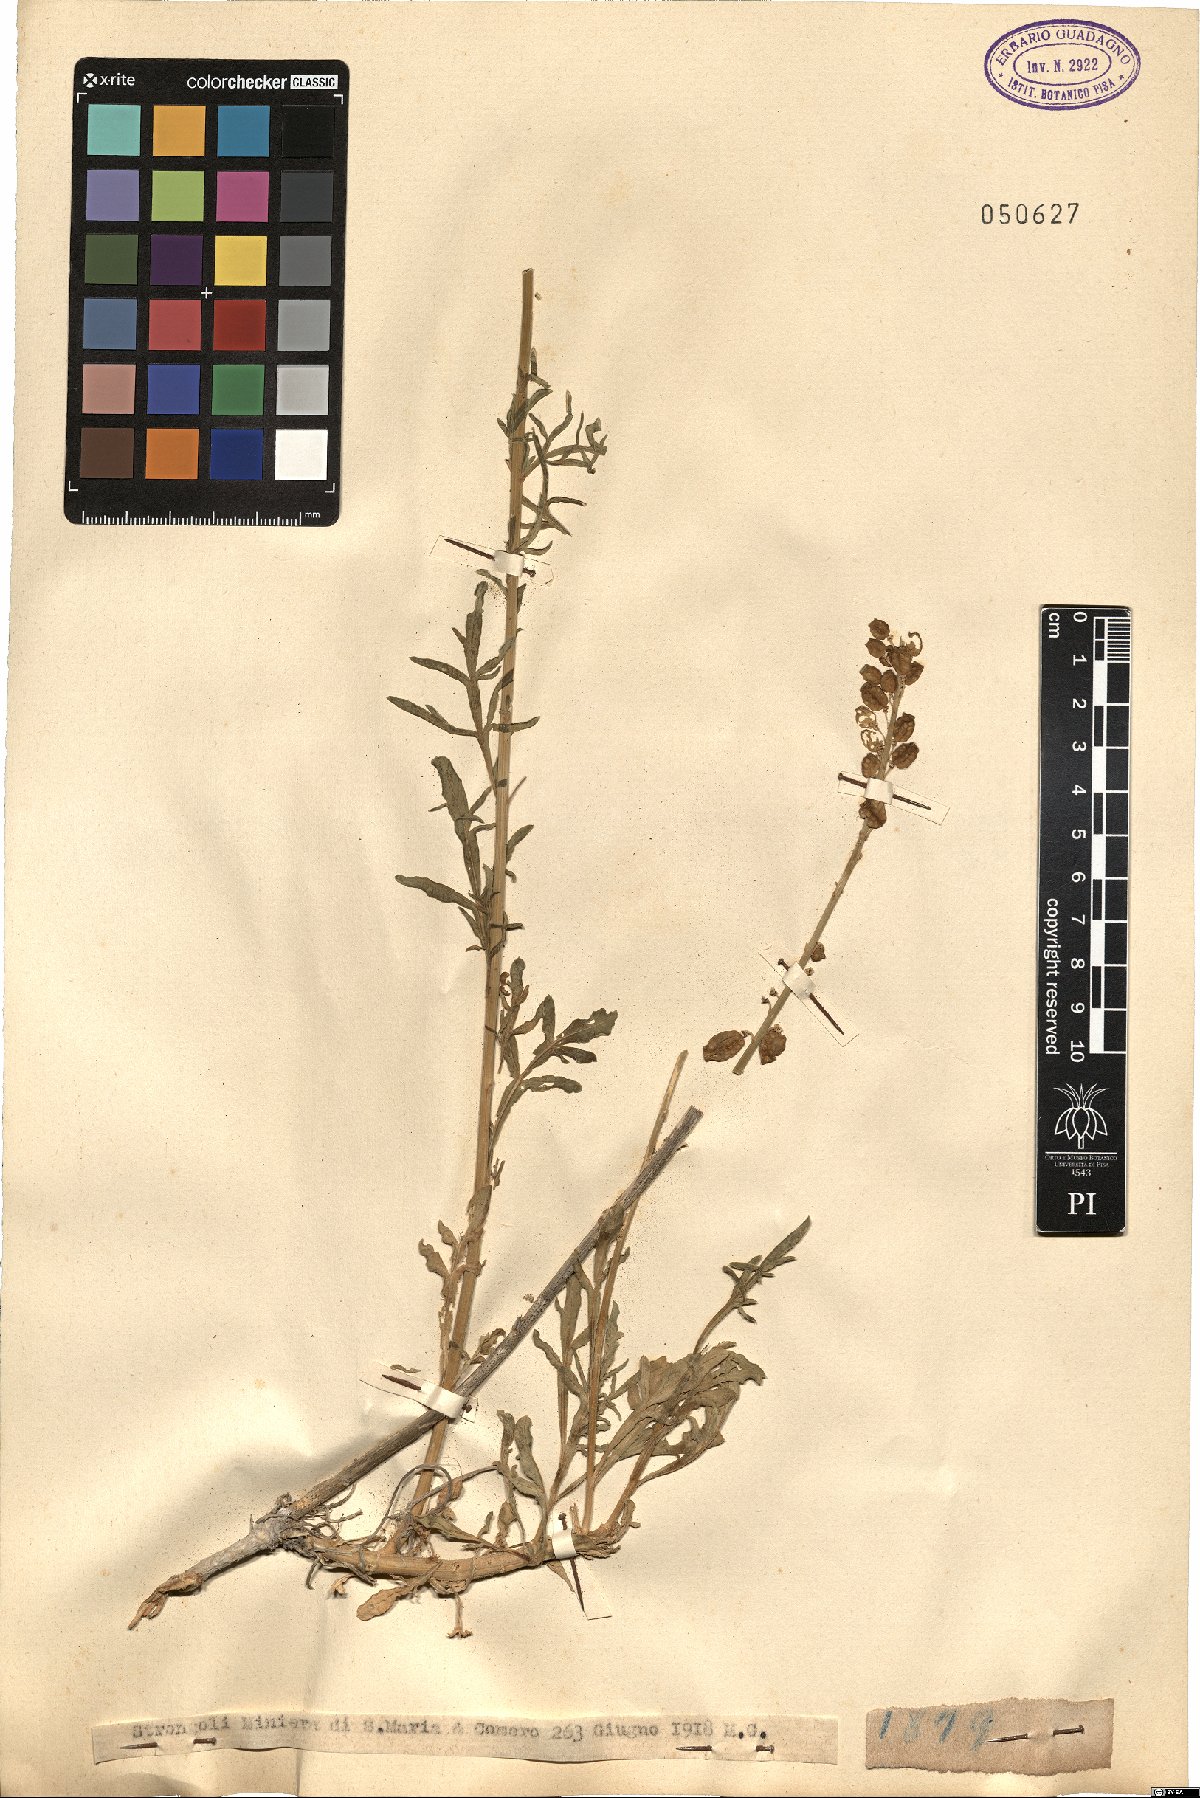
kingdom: Plantae
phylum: Tracheophyta
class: Magnoliopsida
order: Brassicales
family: Resedaceae
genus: Reseda
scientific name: Reseda
